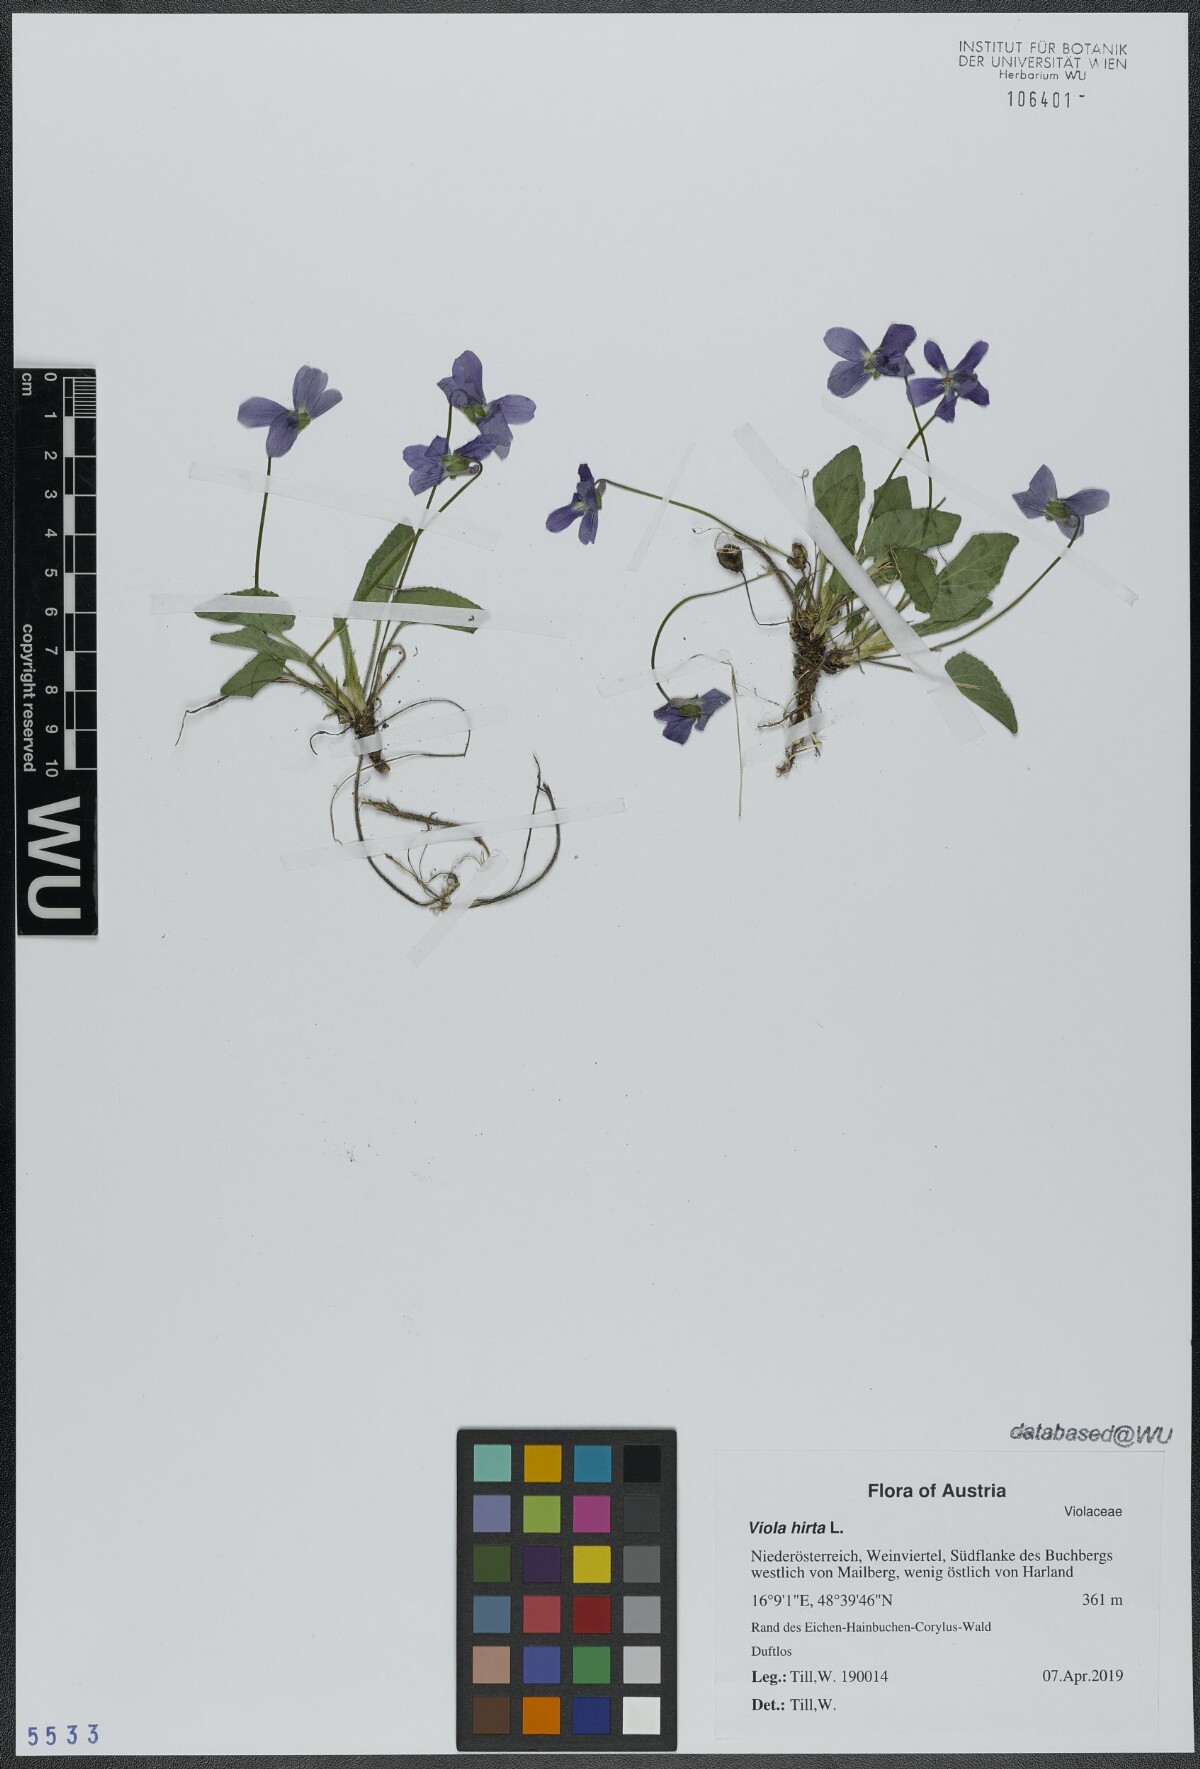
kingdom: Plantae
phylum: Tracheophyta
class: Magnoliopsida
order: Malpighiales
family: Violaceae
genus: Viola
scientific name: Viola hirta
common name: Hairy violet
